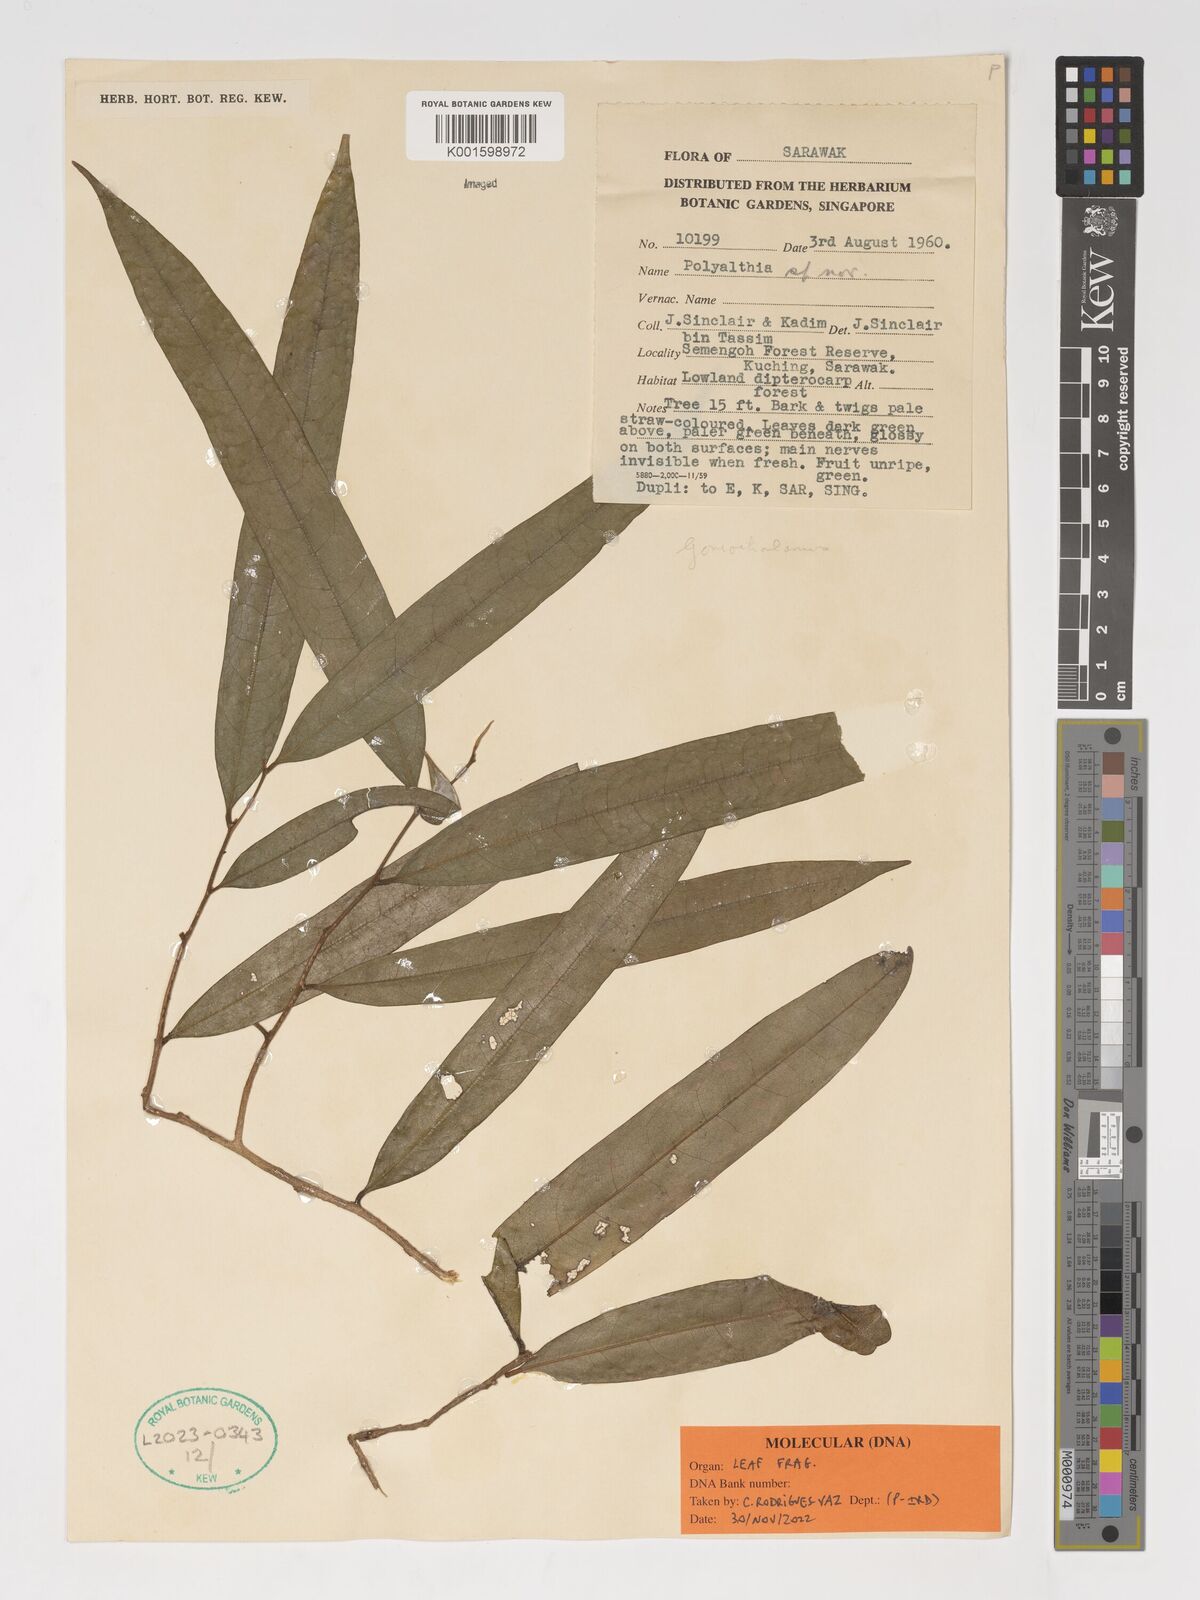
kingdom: Plantae
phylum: Tracheophyta
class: Magnoliopsida
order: Magnoliales
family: Annonaceae
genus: Goniothalamus
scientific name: Goniothalamus
